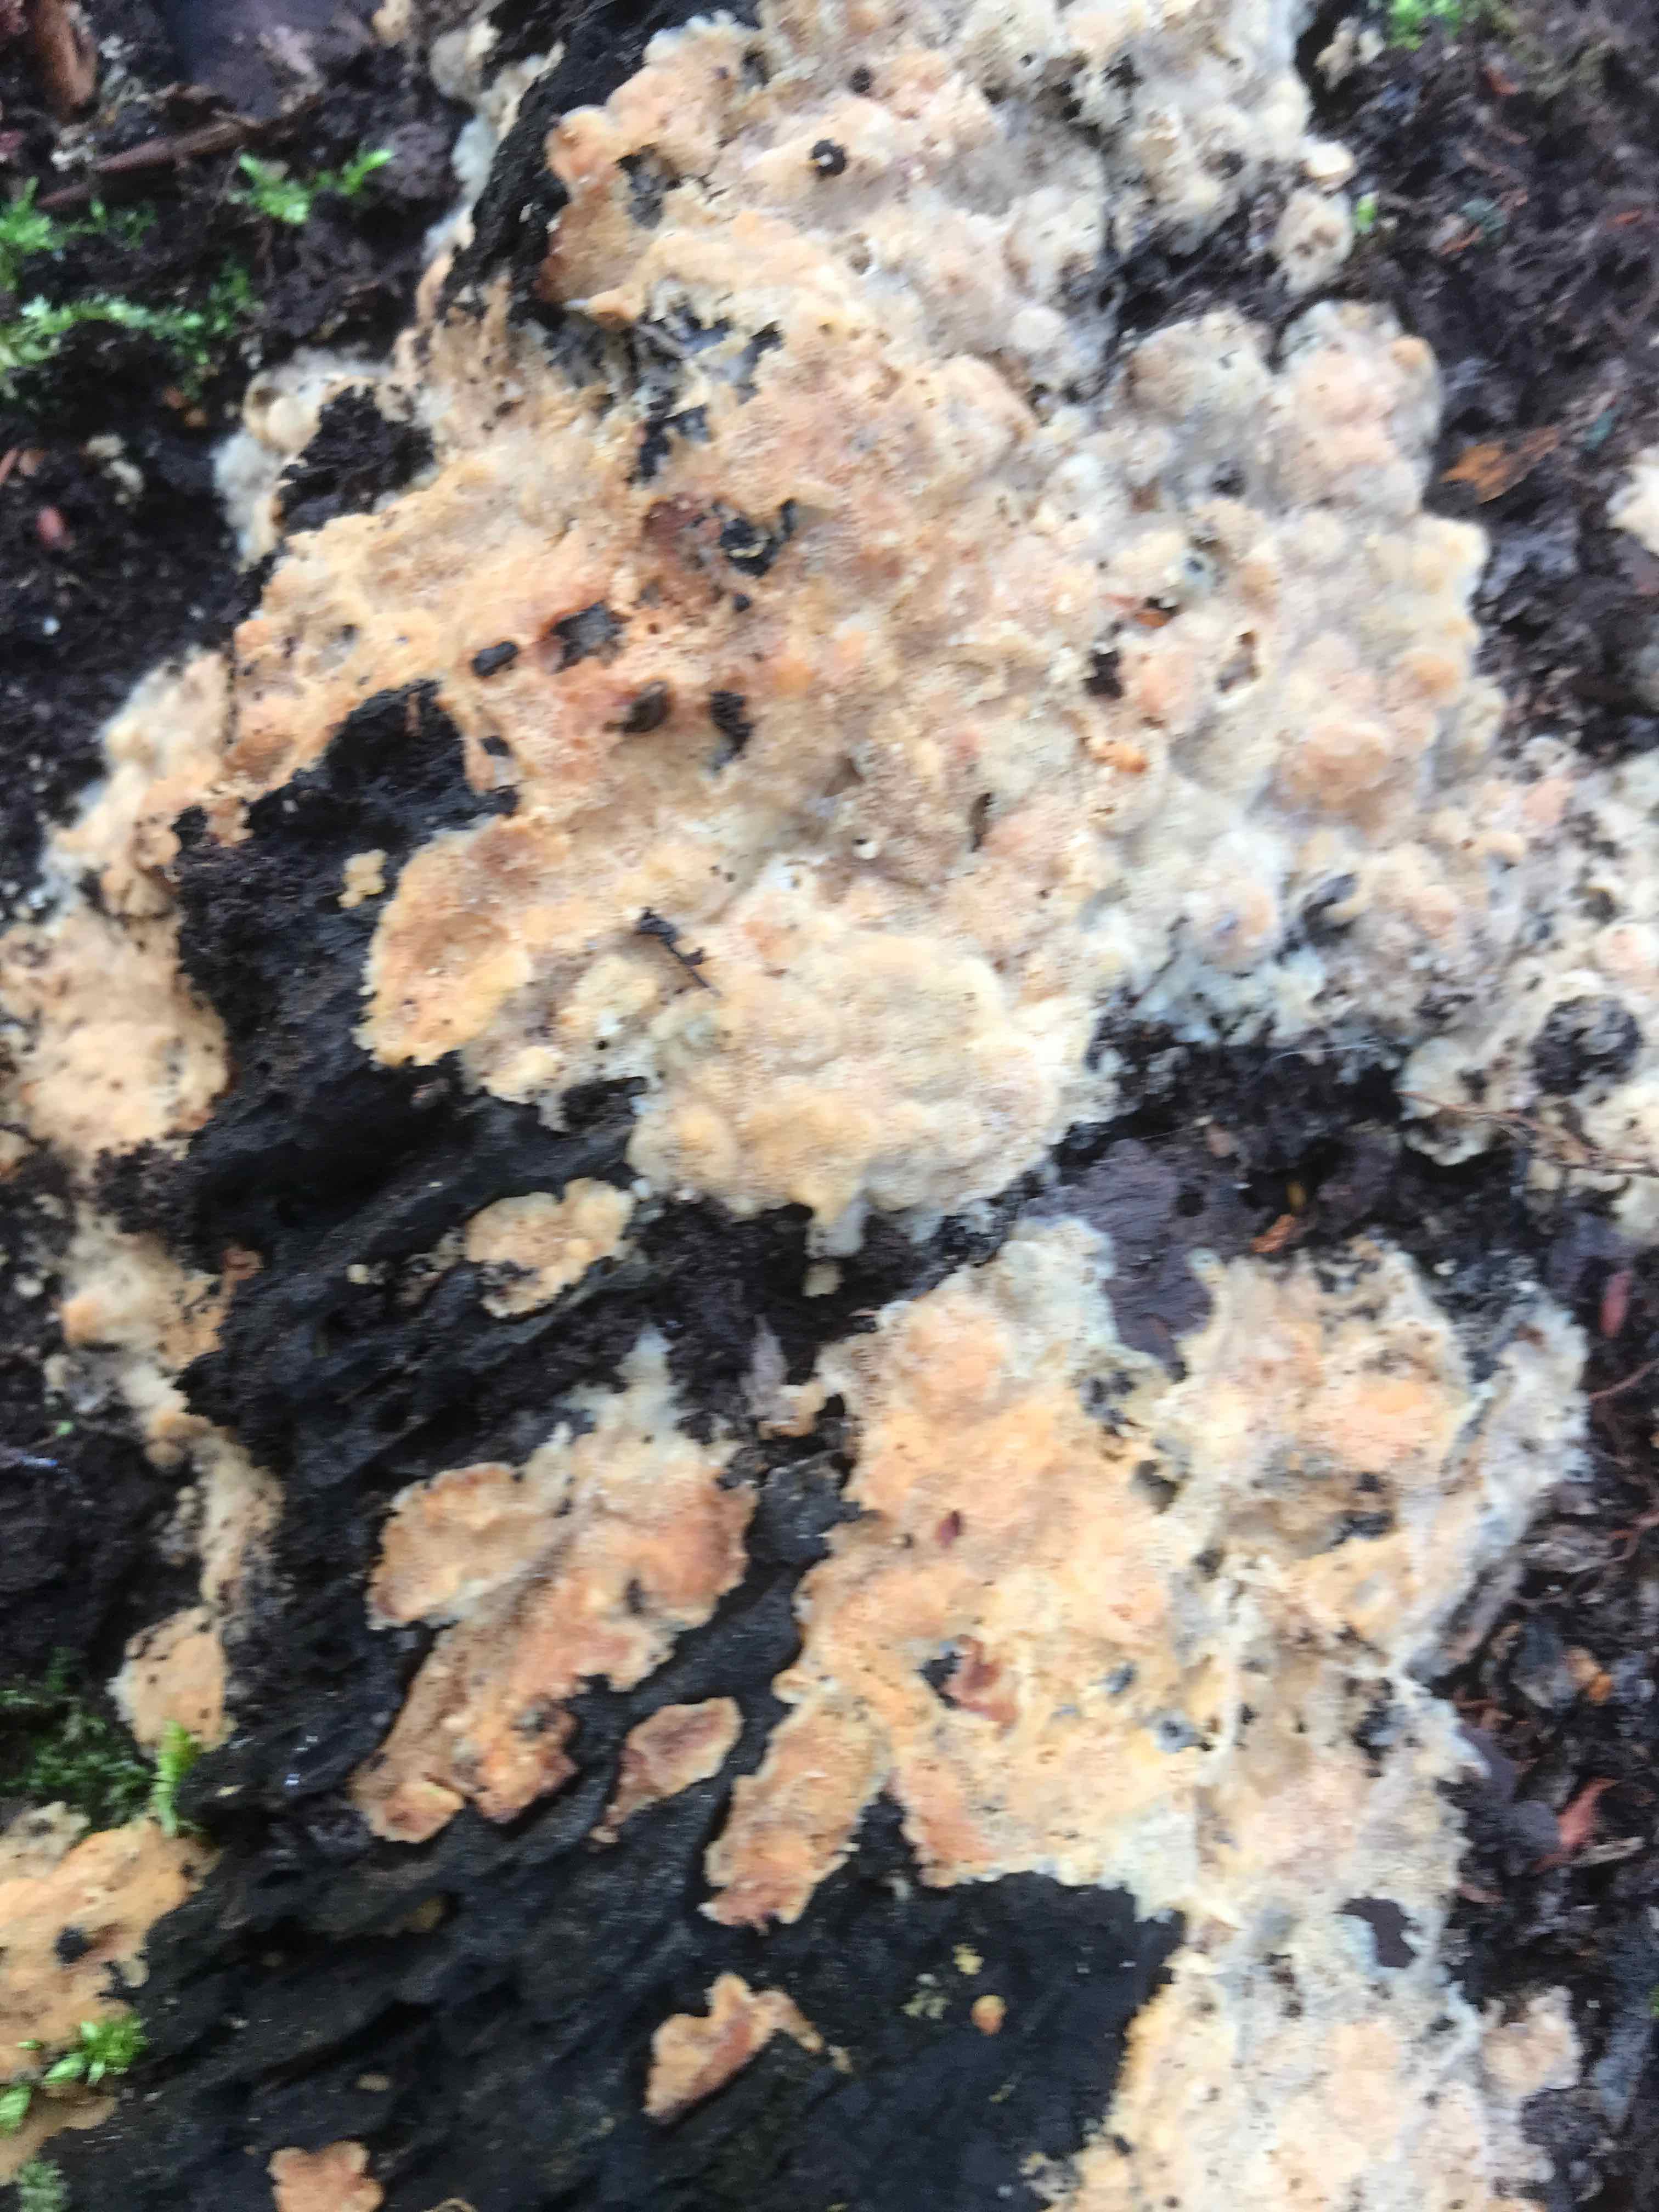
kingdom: Fungi
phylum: Basidiomycota
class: Agaricomycetes
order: Polyporales
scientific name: Polyporales
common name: poresvampordenen
